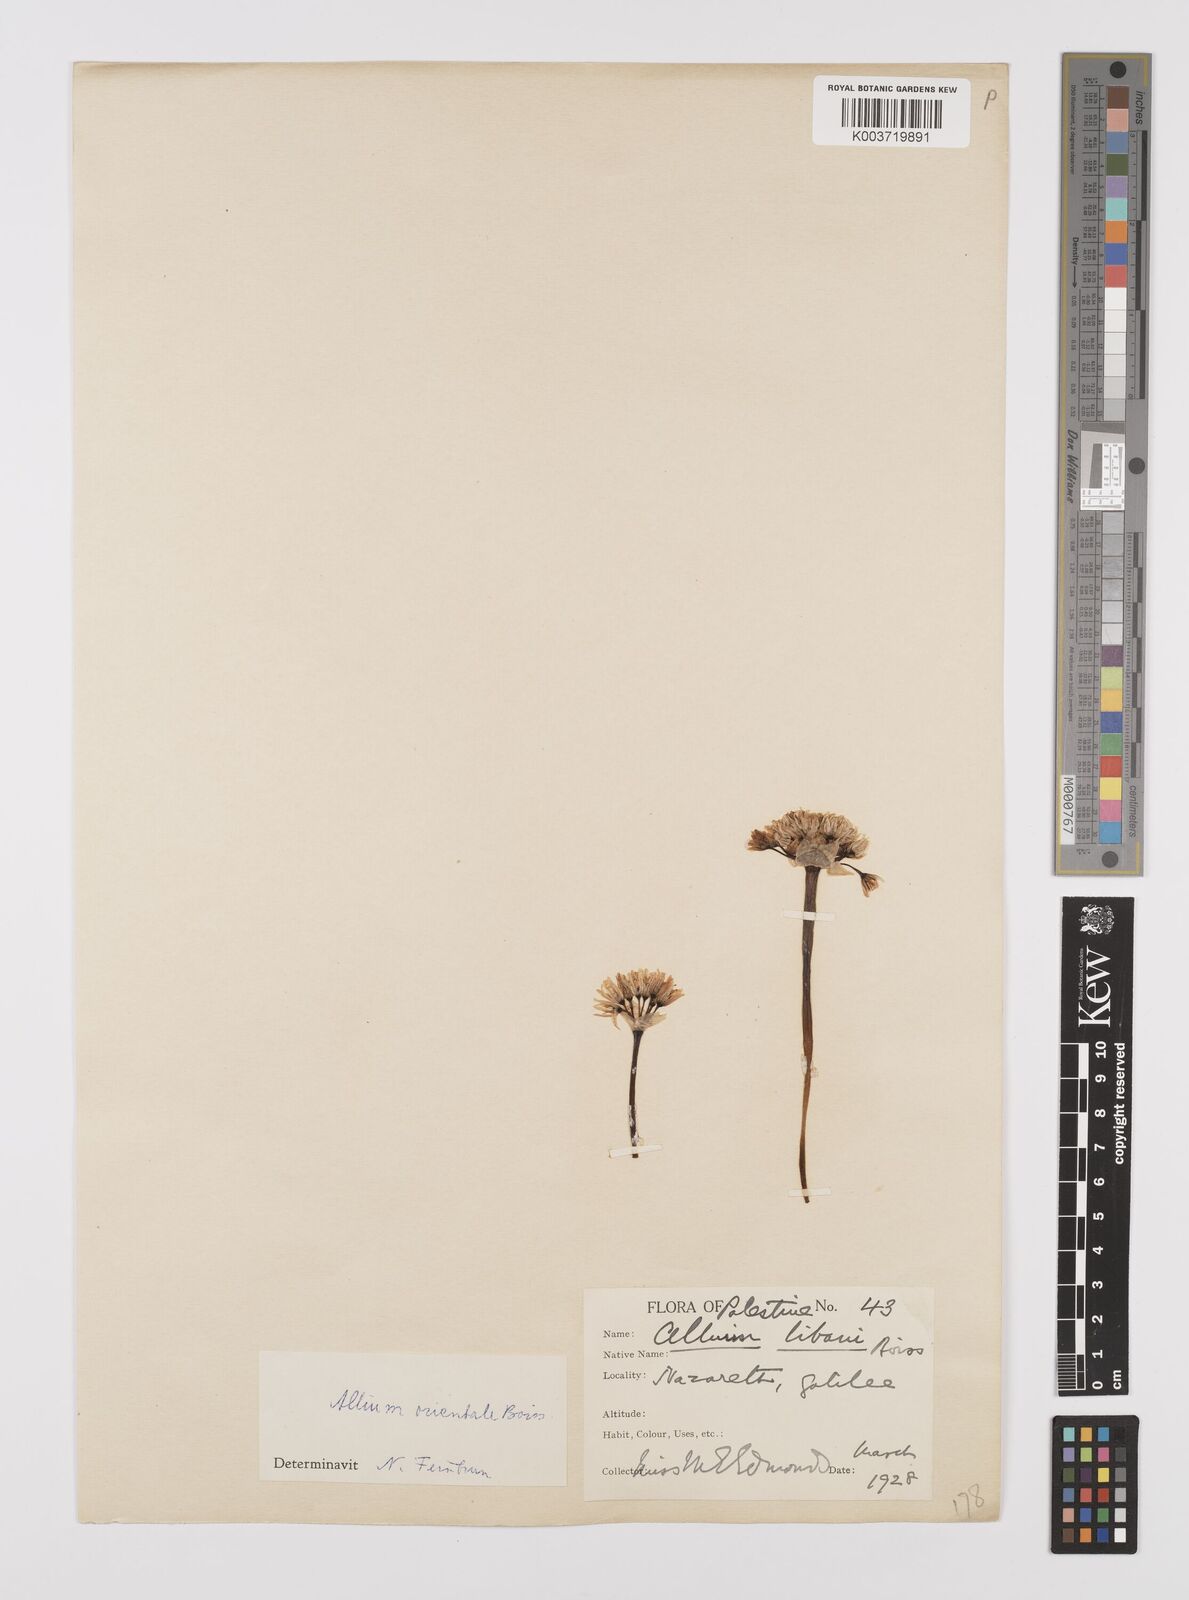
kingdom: Plantae
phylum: Tracheophyta
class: Liliopsida
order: Asparagales
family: Amaryllidaceae
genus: Allium
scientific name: Allium orientale
